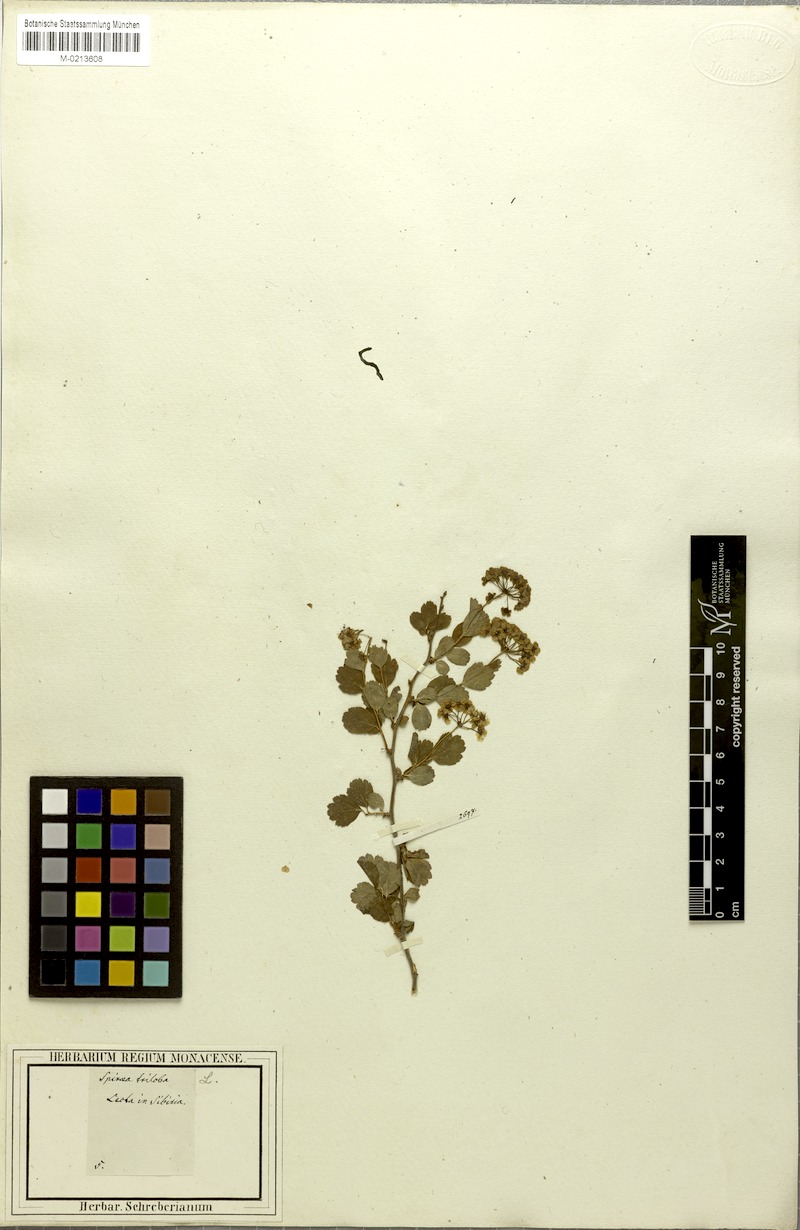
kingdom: Plantae
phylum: Tracheophyta
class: Magnoliopsida
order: Rosales
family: Rosaceae
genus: Spiraea
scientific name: Spiraea trilobata
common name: Asian meadowsweet
